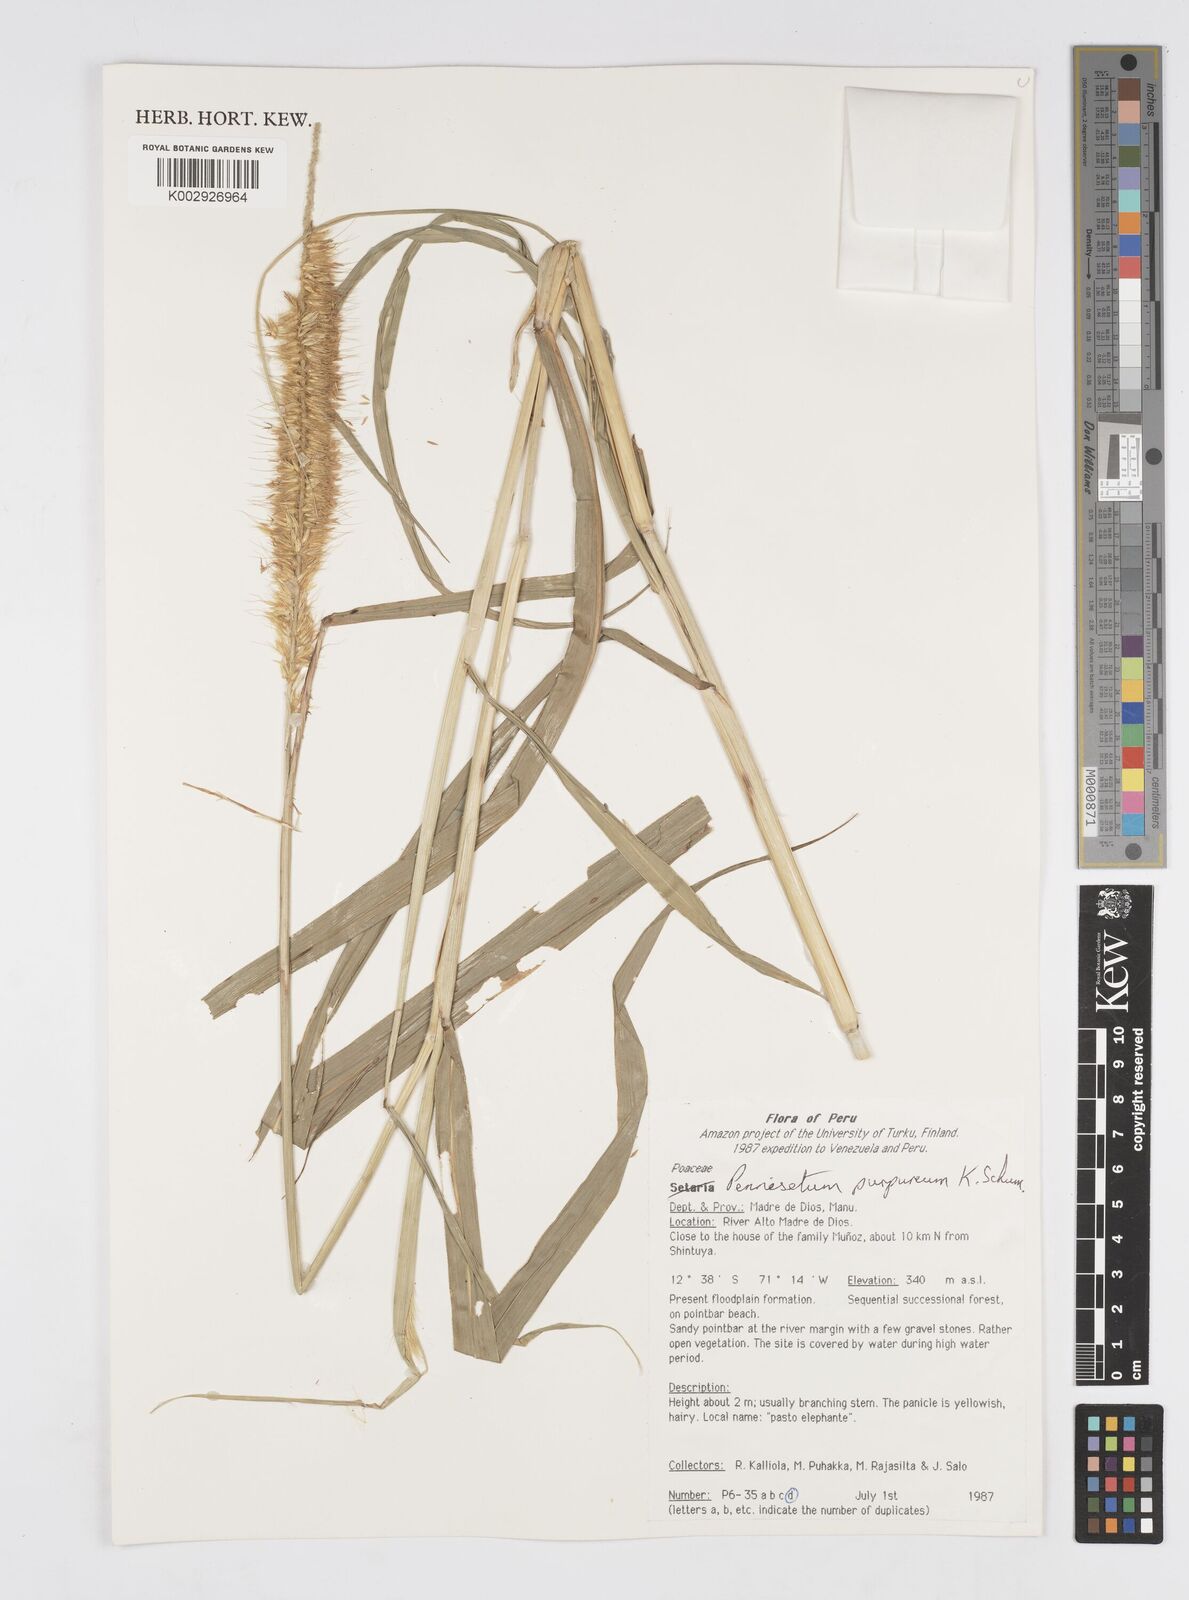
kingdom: Plantae
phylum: Tracheophyta
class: Liliopsida
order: Poales
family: Poaceae
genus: Cenchrus
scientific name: Cenchrus purpureus
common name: Elephant grass
